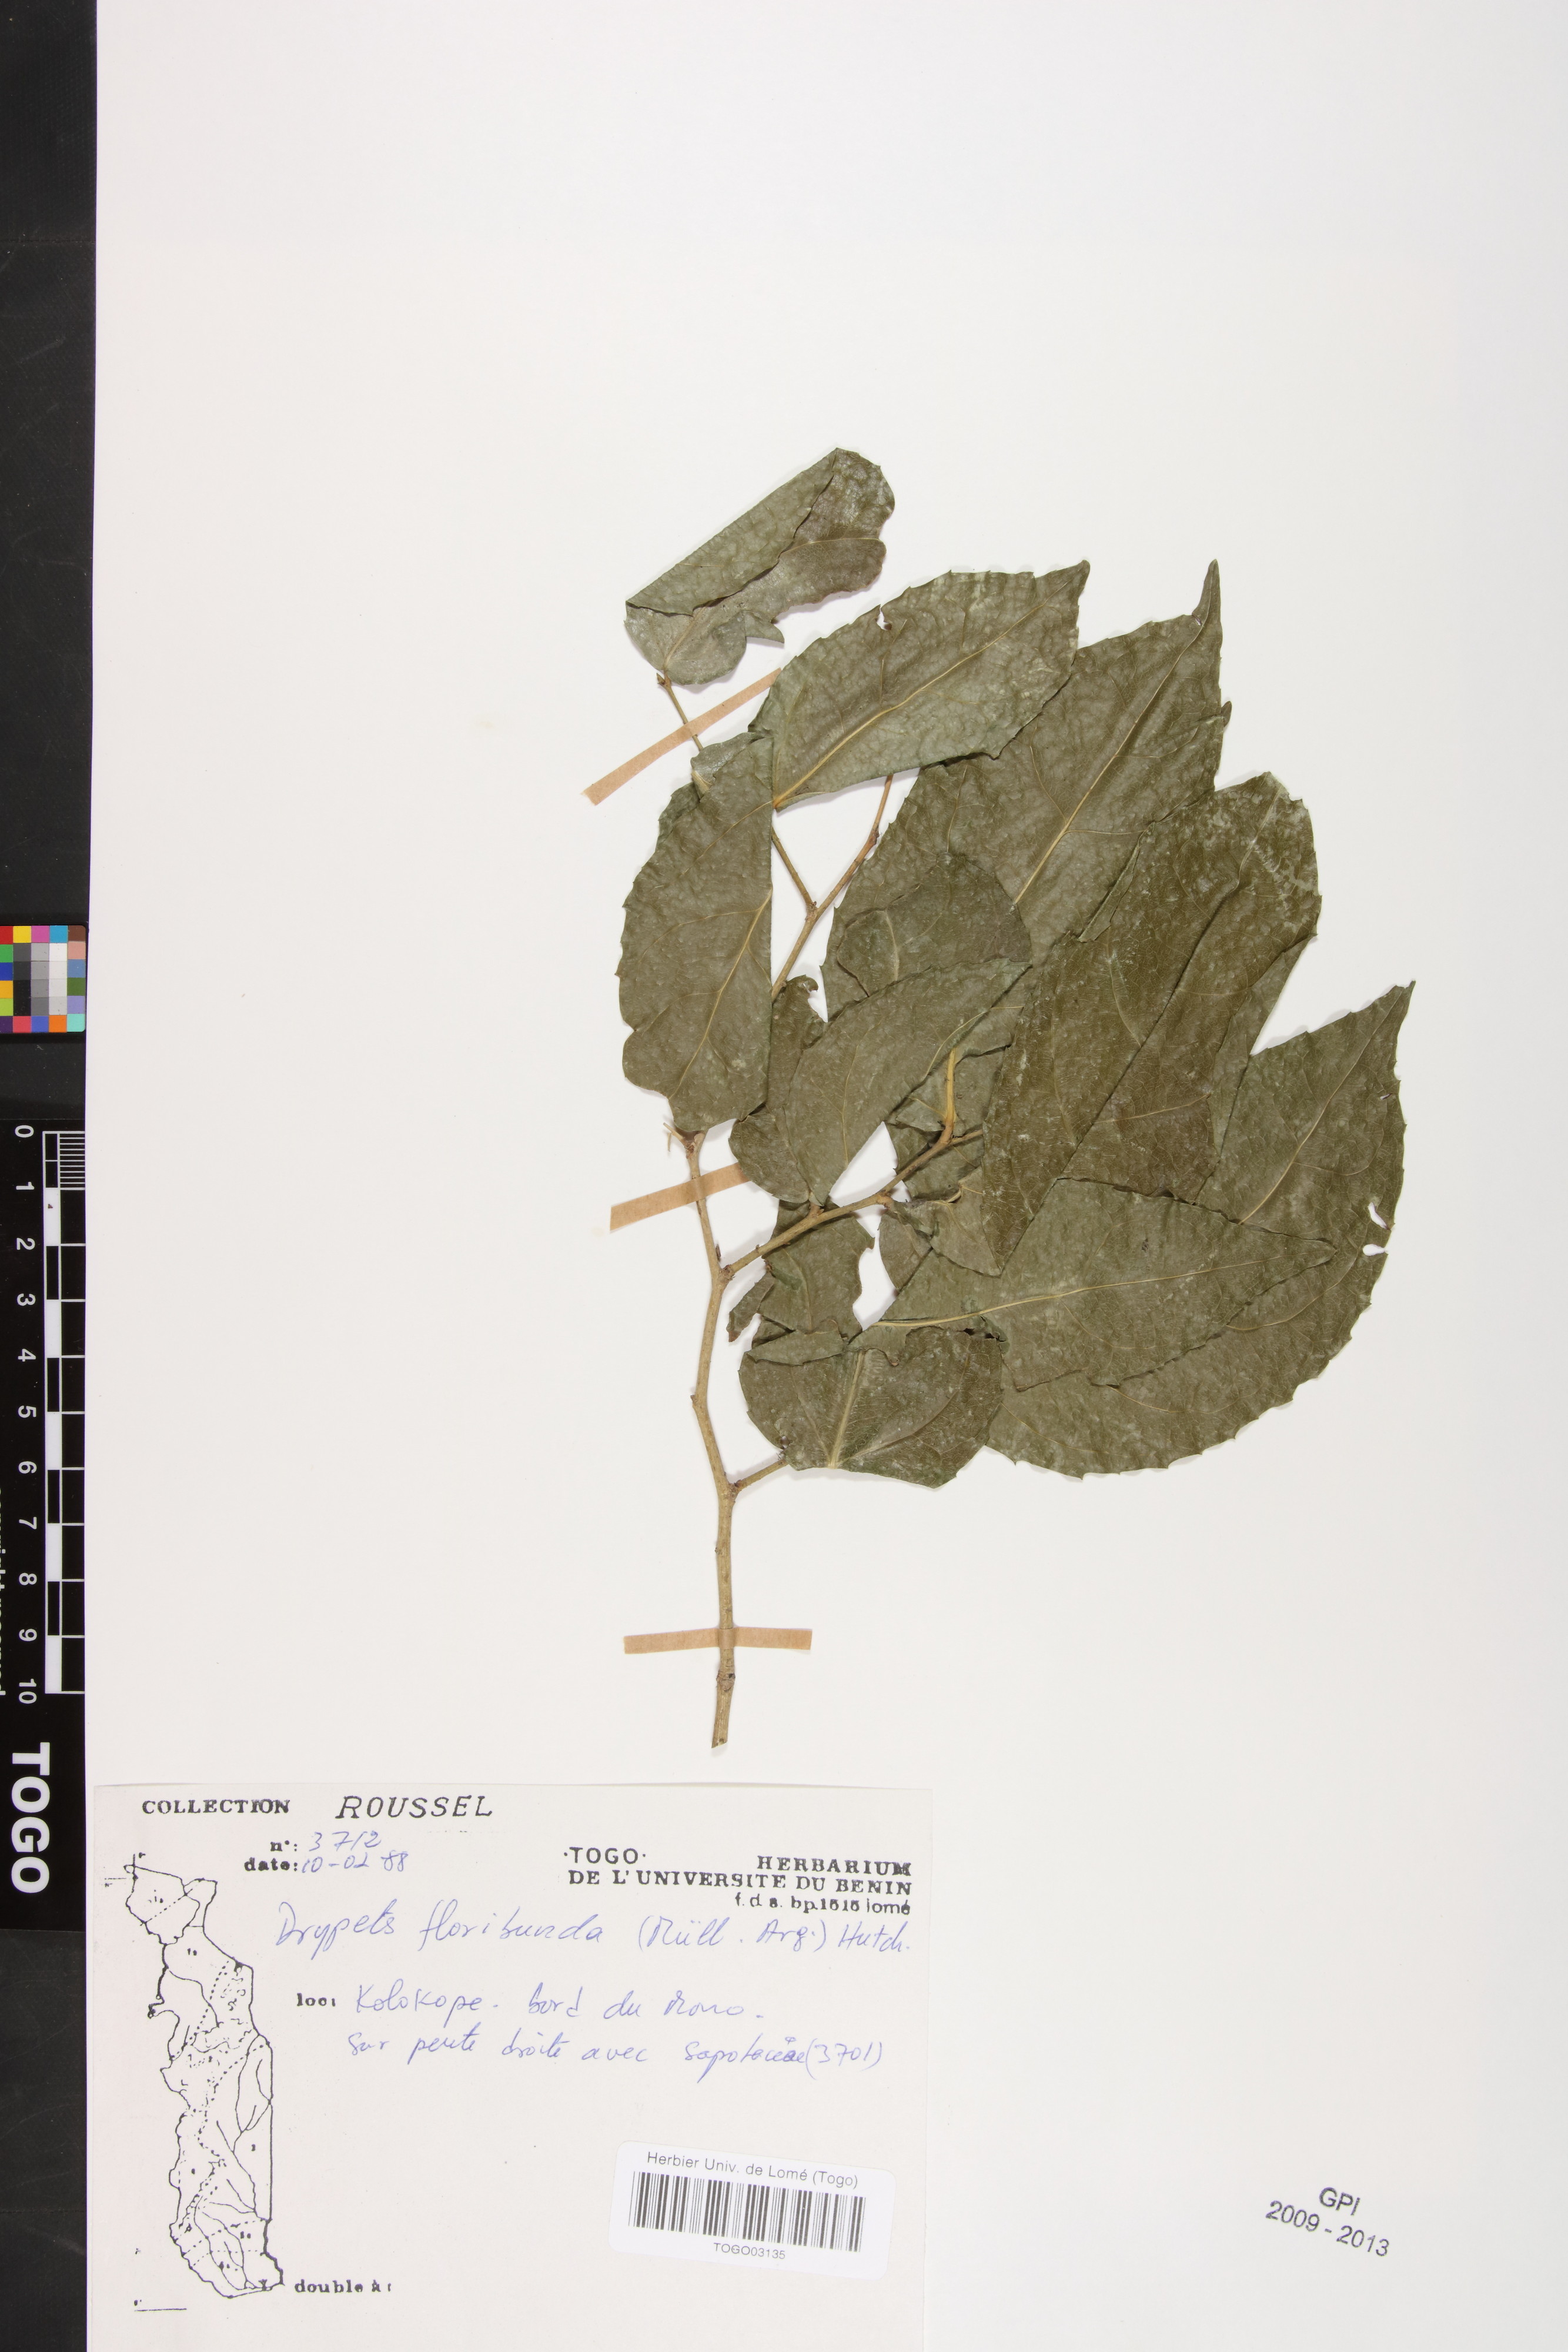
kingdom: Plantae
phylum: Tracheophyta
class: Magnoliopsida
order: Malpighiales
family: Putranjivaceae
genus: Drypetes
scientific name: Drypetes floribunda
